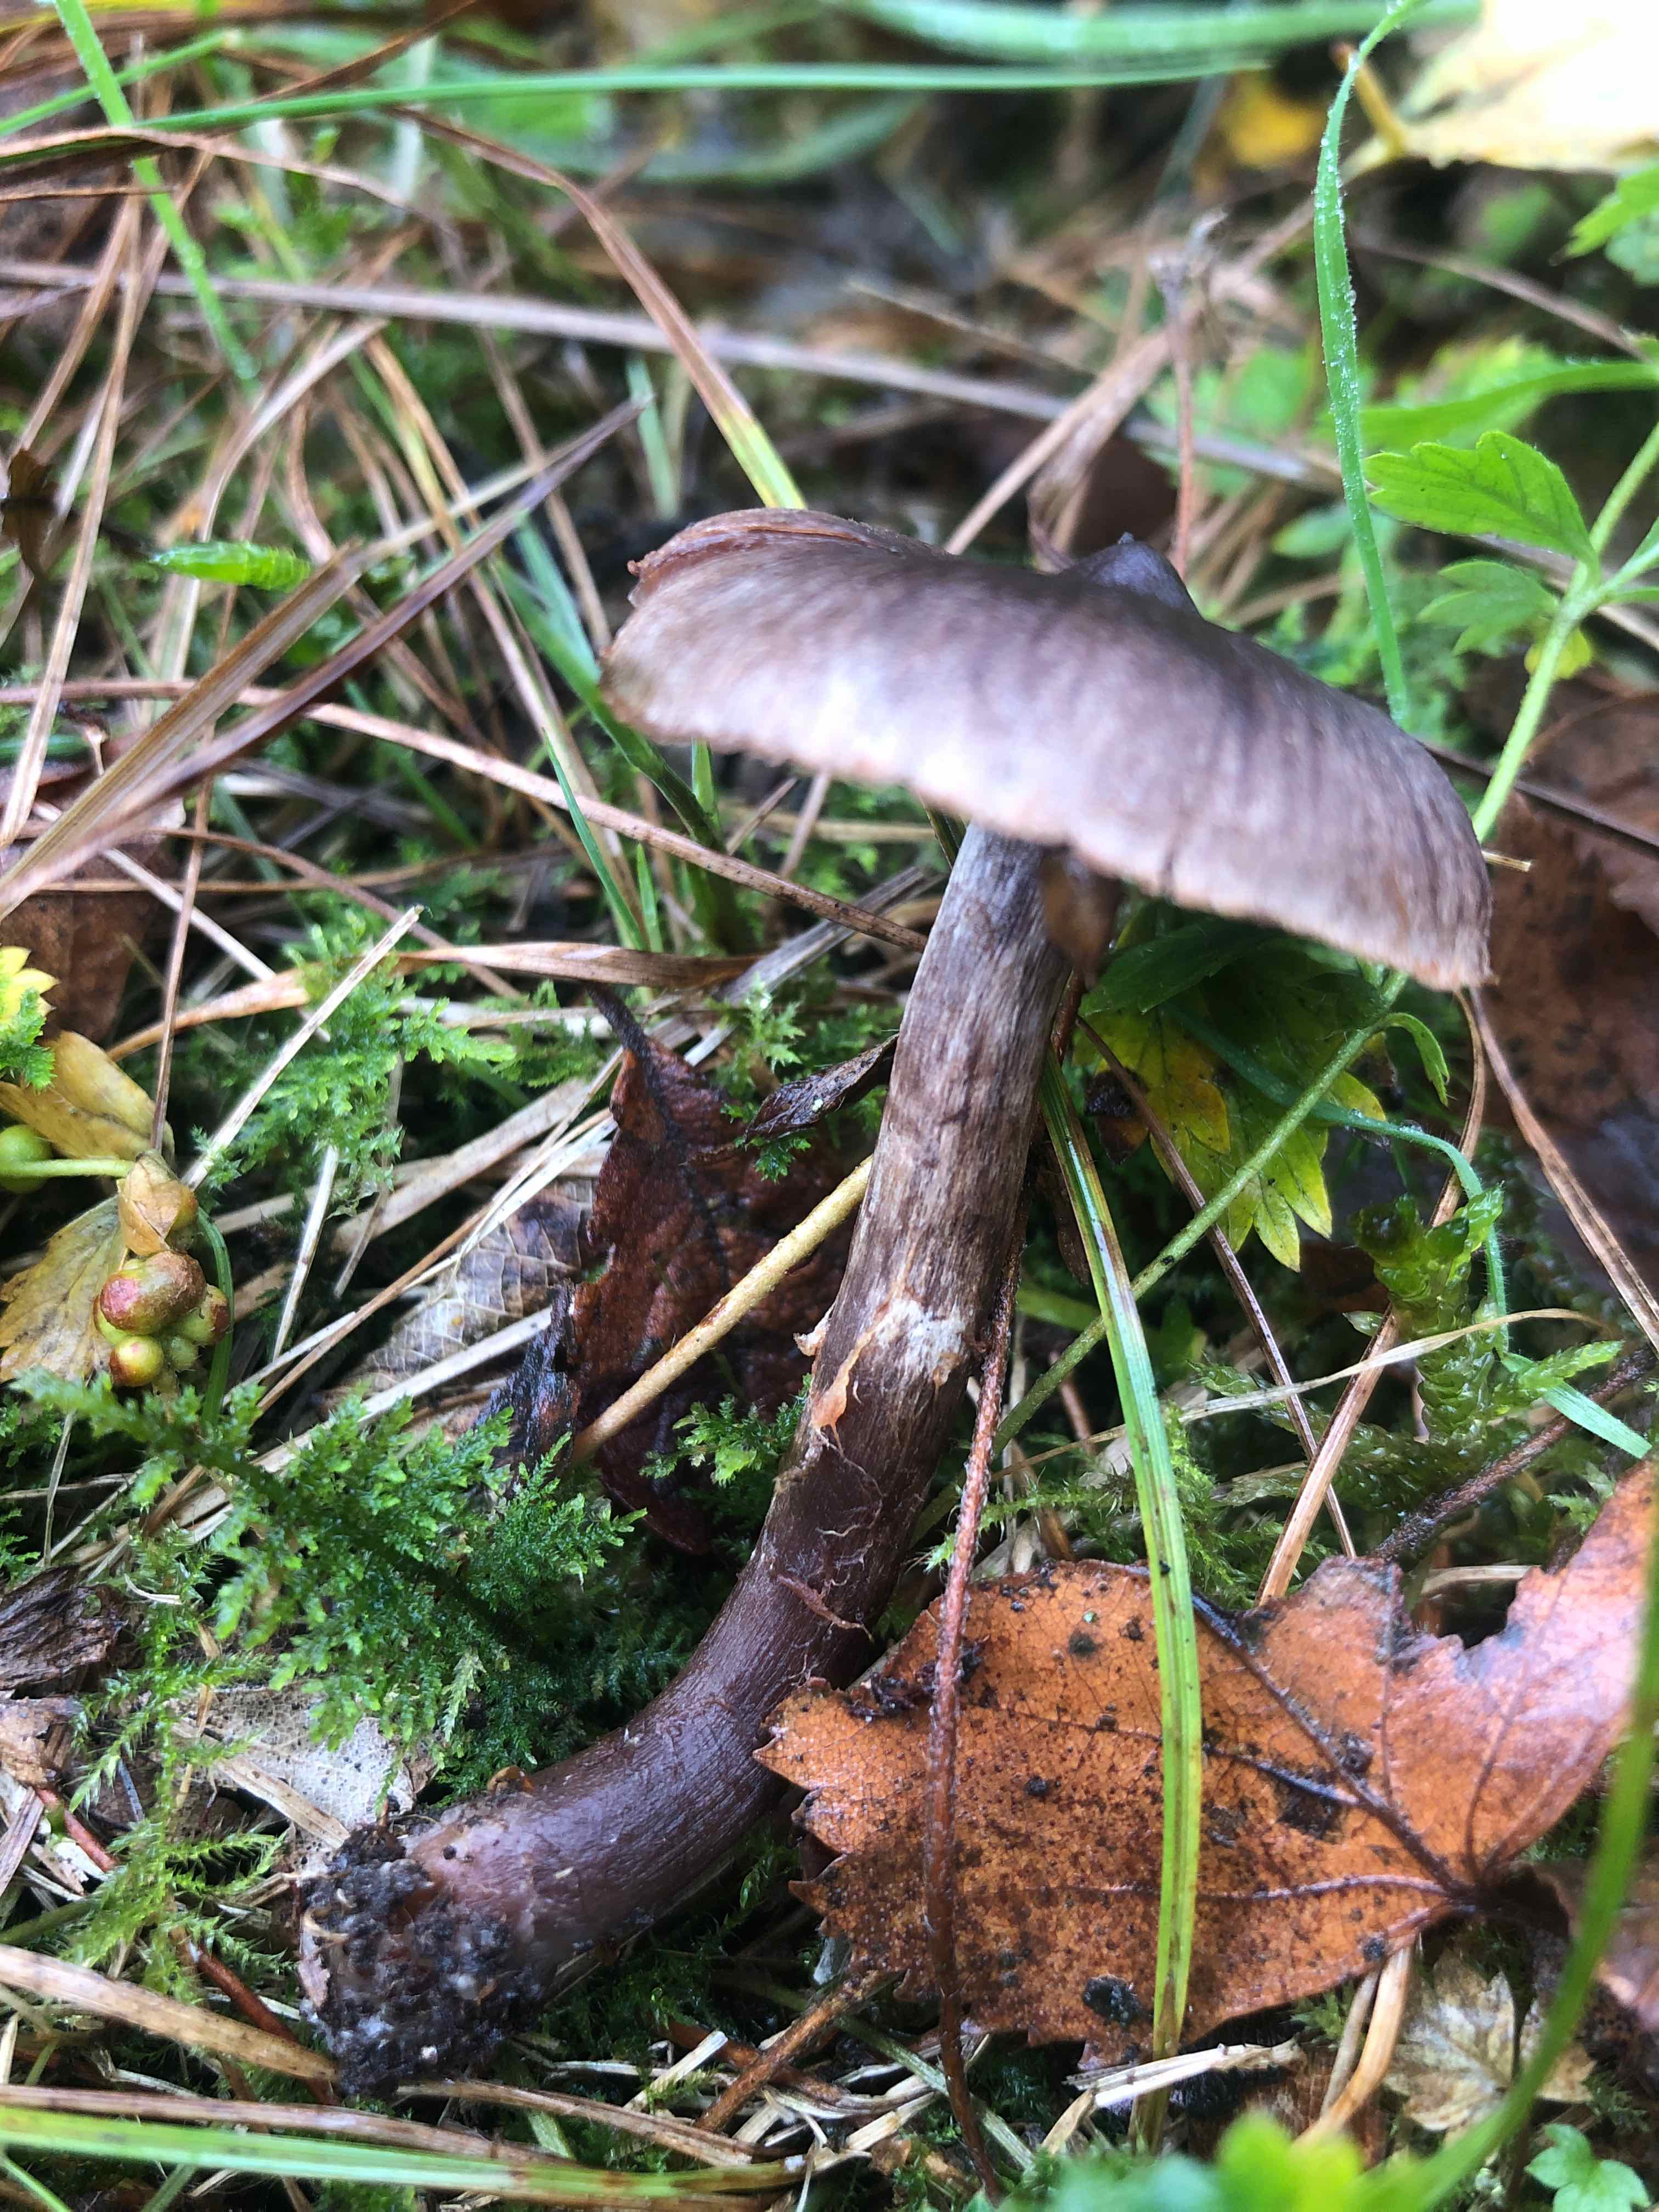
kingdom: Fungi
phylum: Basidiomycota
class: Agaricomycetes
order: Agaricales
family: Cortinariaceae
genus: Cortinarius
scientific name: Cortinarius decipiens
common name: blåsort slørhat
